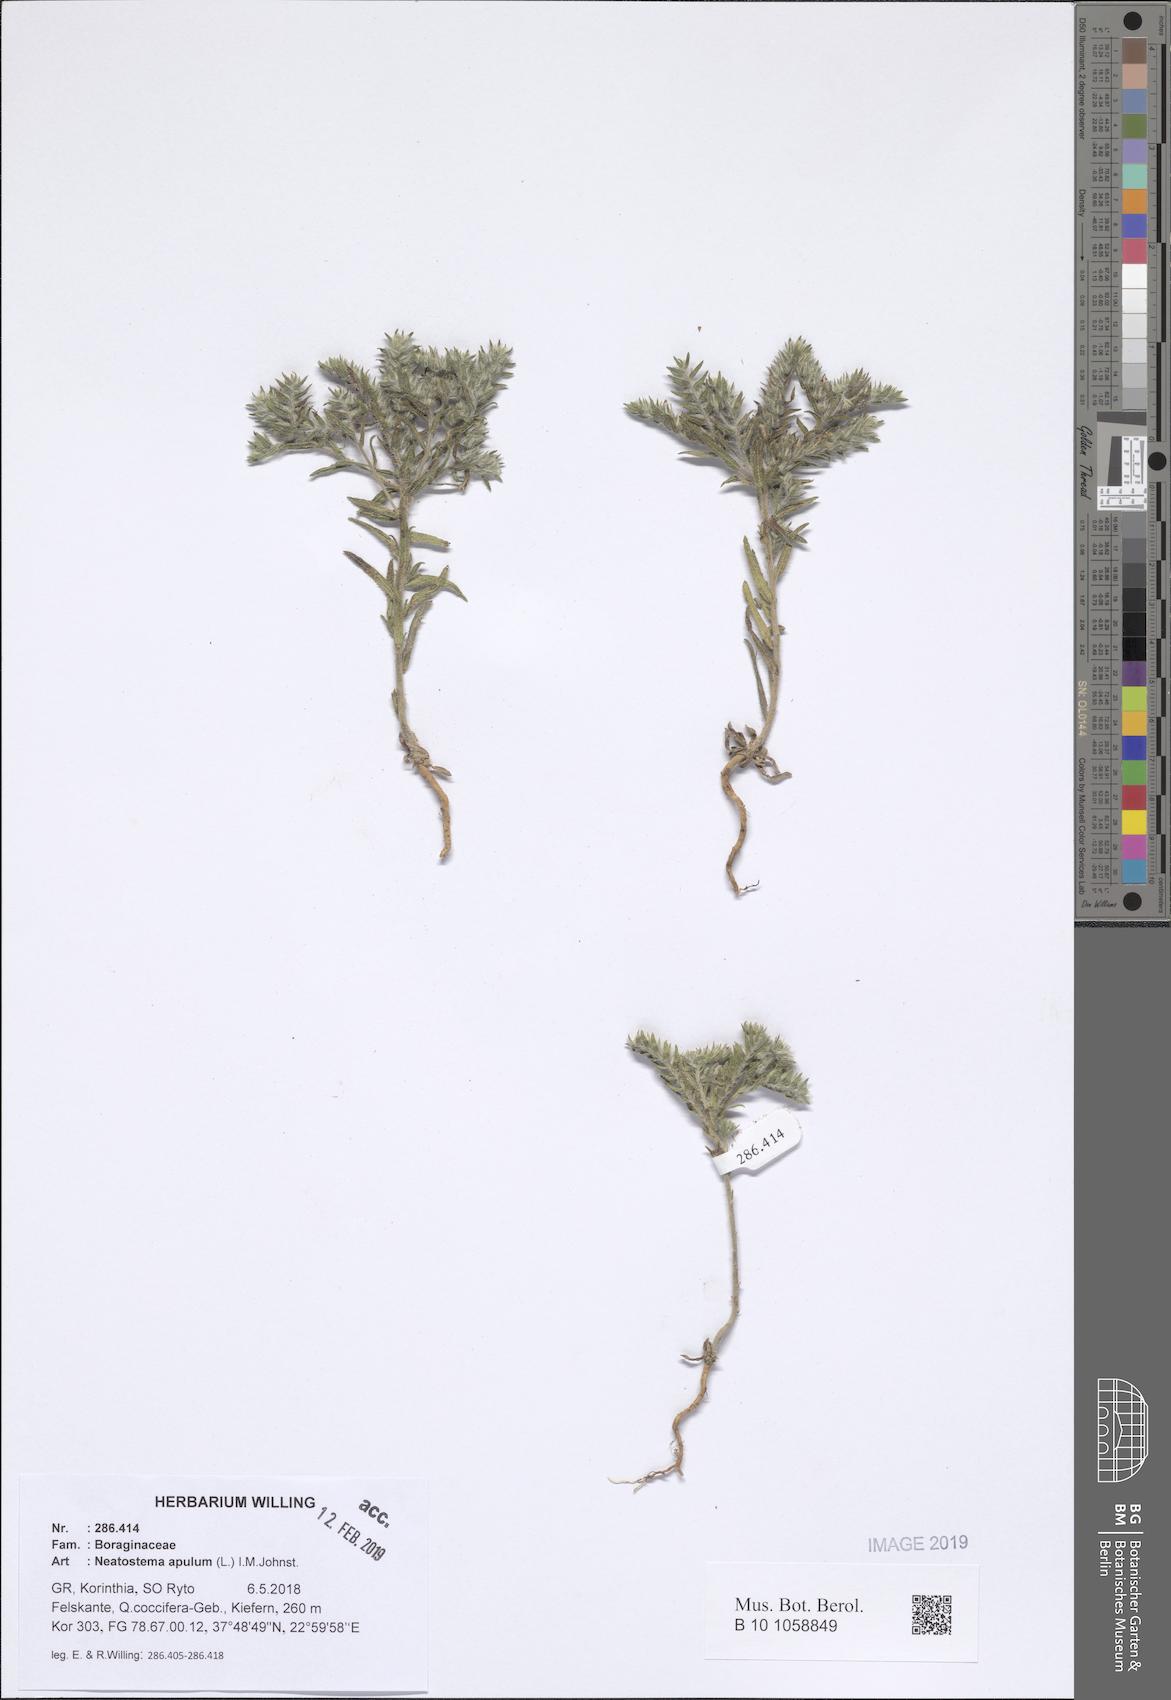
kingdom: Plantae
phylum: Tracheophyta
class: Magnoliopsida
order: Boraginales
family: Boraginaceae
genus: Neatostema
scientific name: Neatostema apulum
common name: Hairy sheepweed
